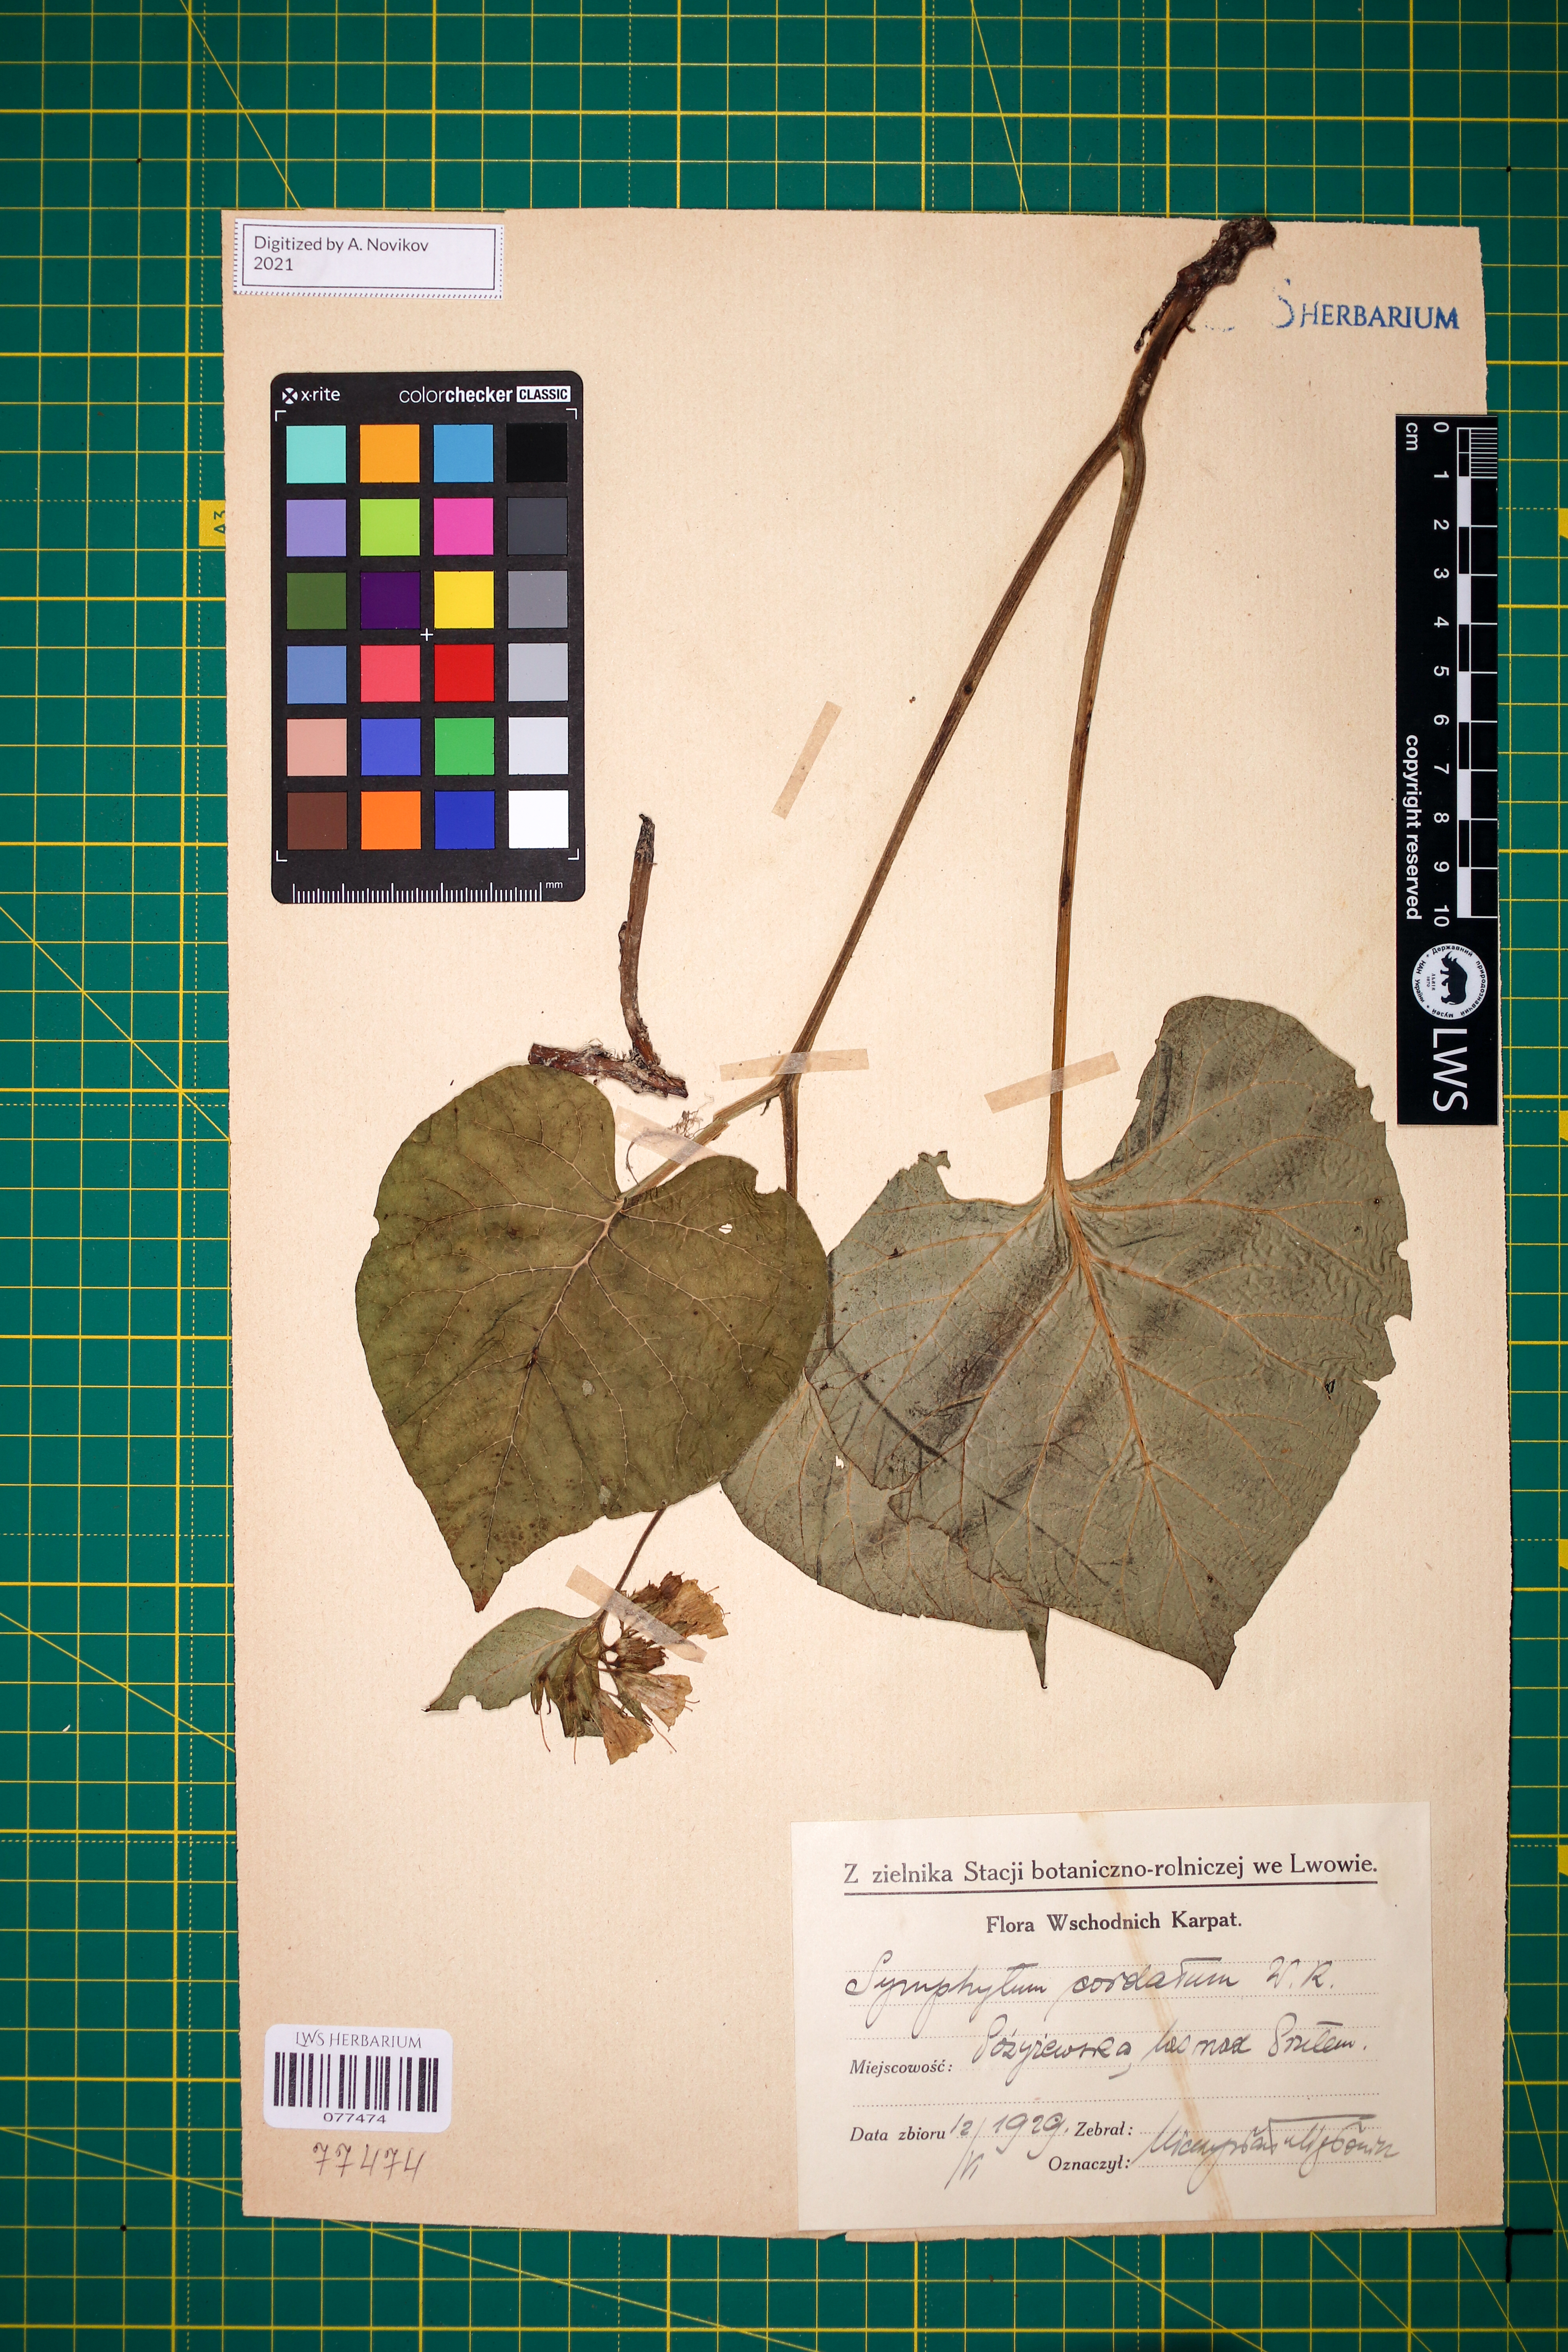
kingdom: Plantae
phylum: Tracheophyta
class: Magnoliopsida
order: Boraginales
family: Boraginaceae
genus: Symphytum
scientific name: Symphytum cordatum
